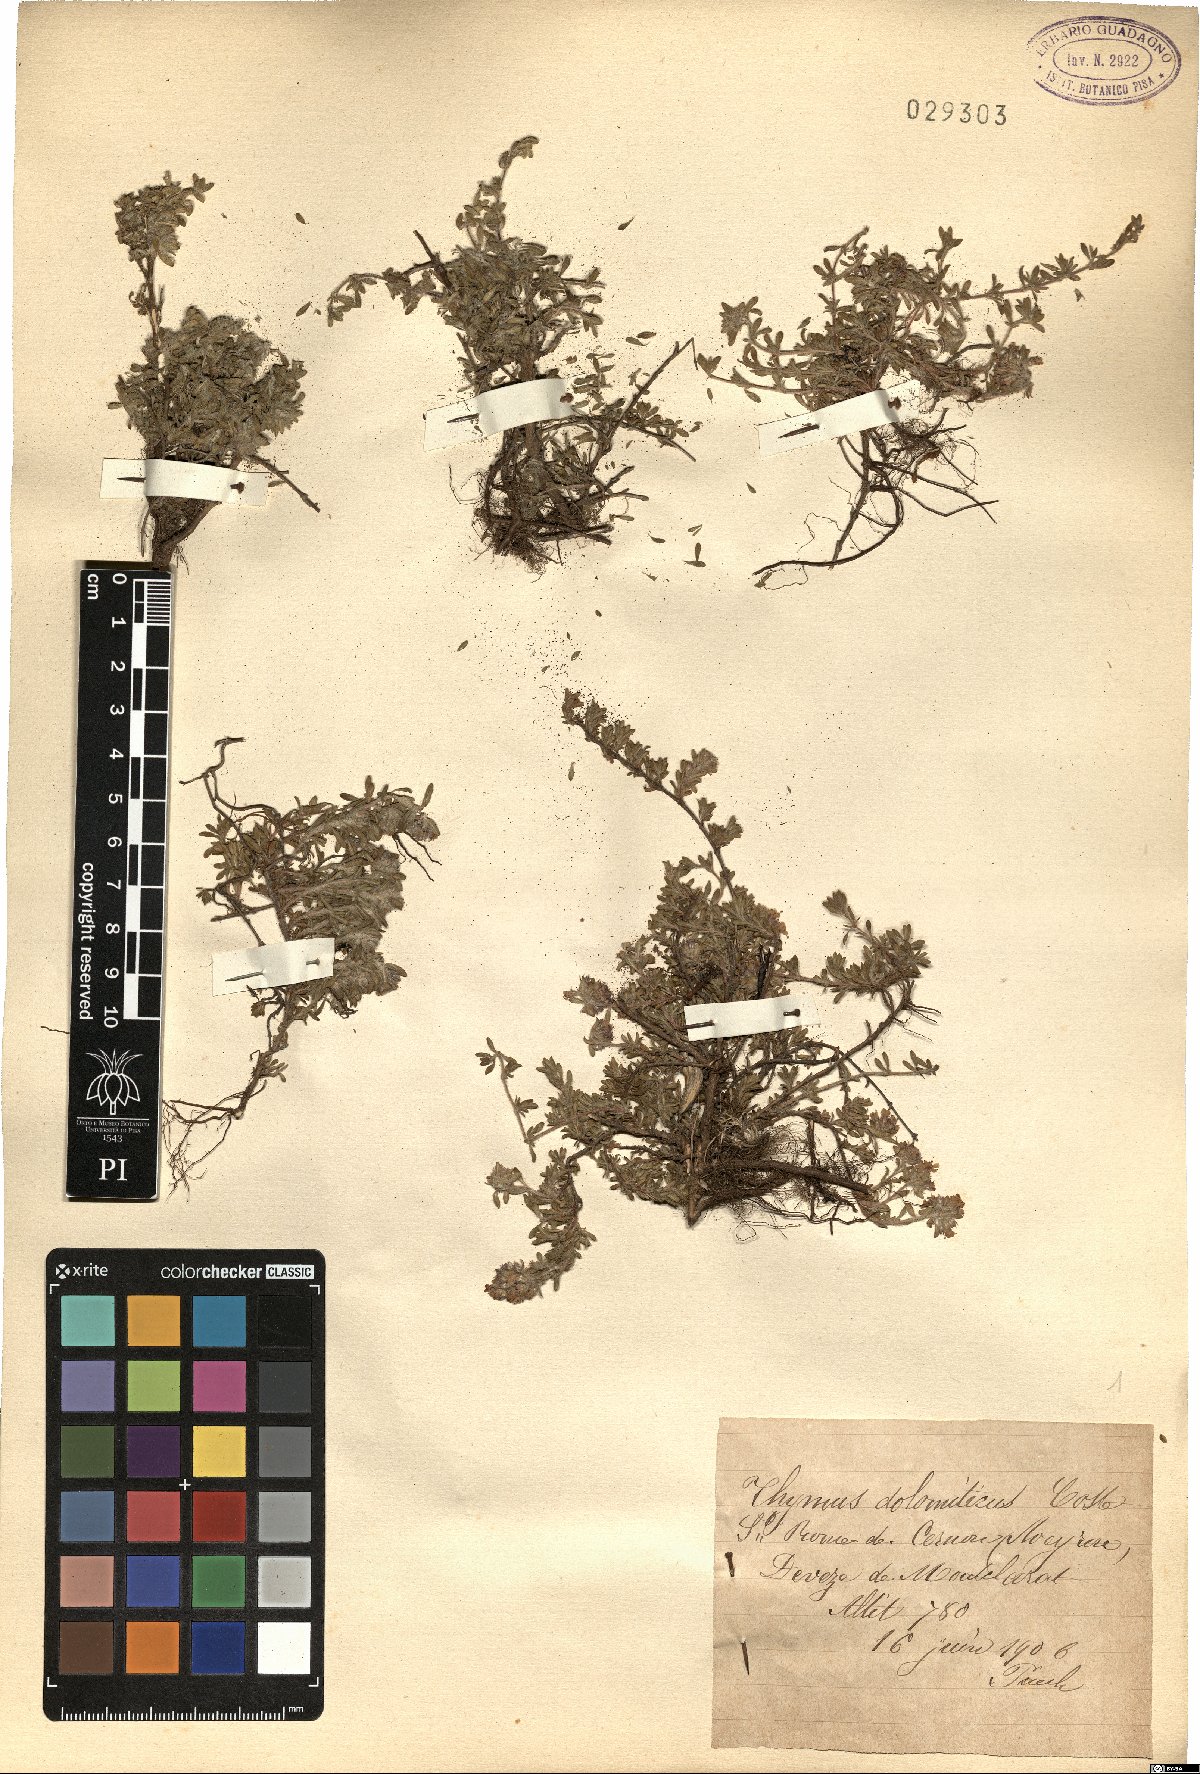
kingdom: Plantae
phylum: Tracheophyta
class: Magnoliopsida
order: Lamiales
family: Lamiaceae
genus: Thymus
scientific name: Thymus dolomiticus
